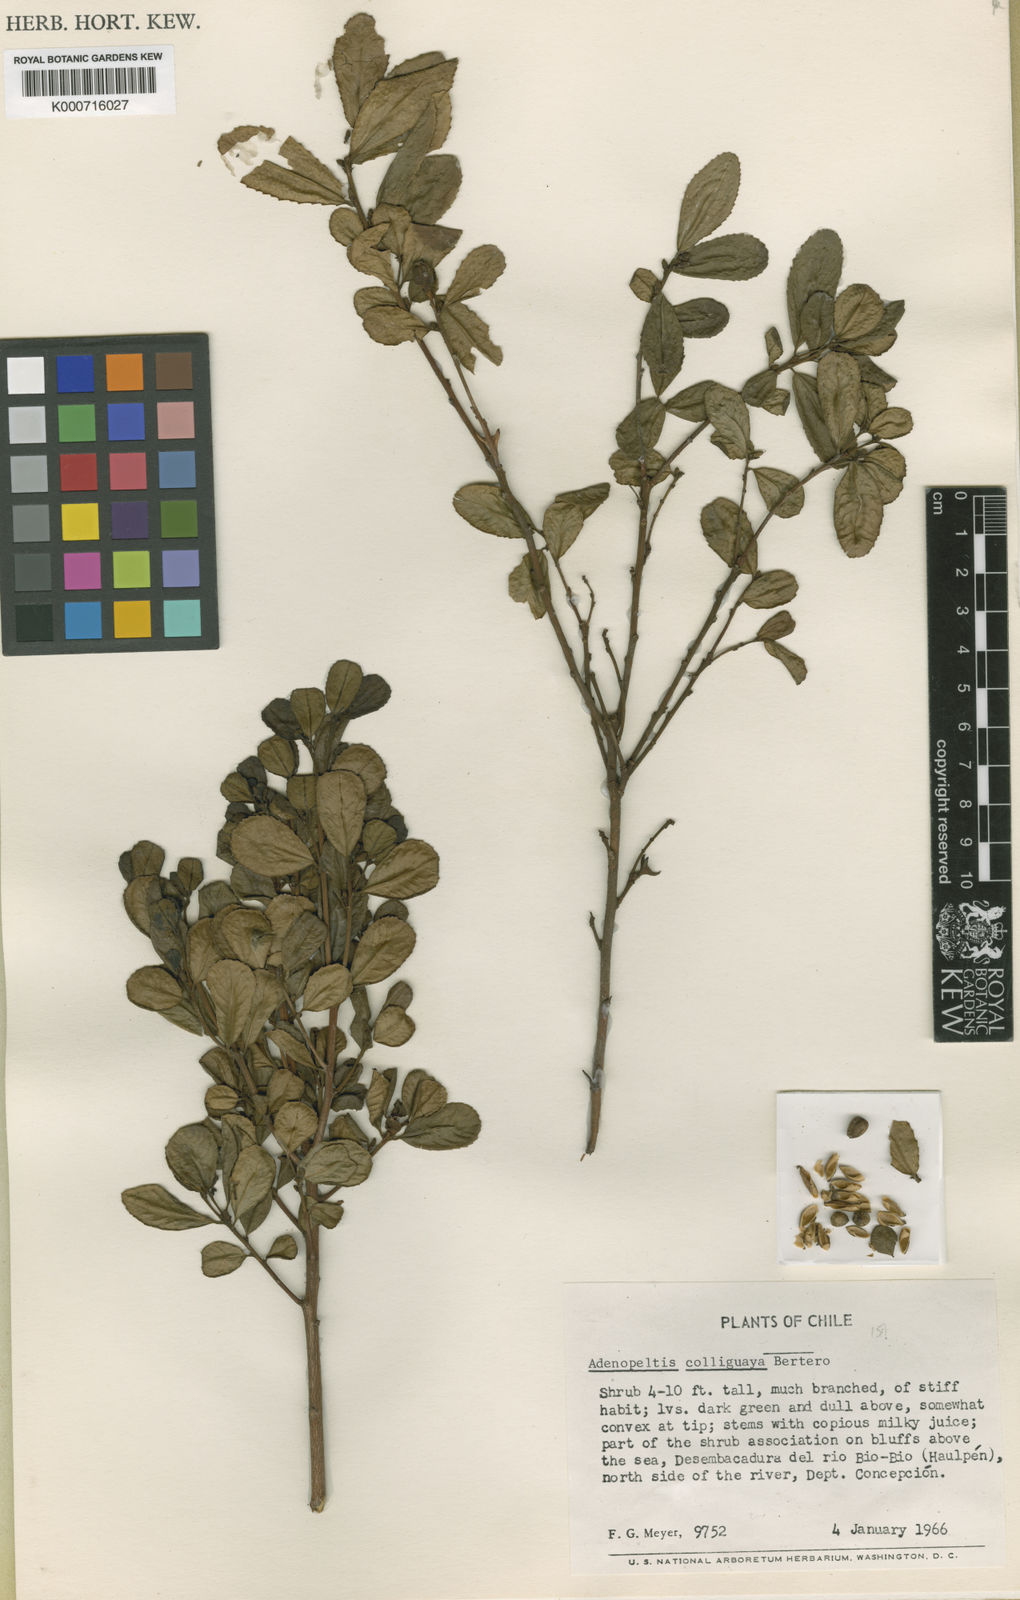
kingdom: Plantae
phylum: Tracheophyta
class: Magnoliopsida
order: Malpighiales
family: Euphorbiaceae
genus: Adenopeltis
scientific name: Adenopeltis
